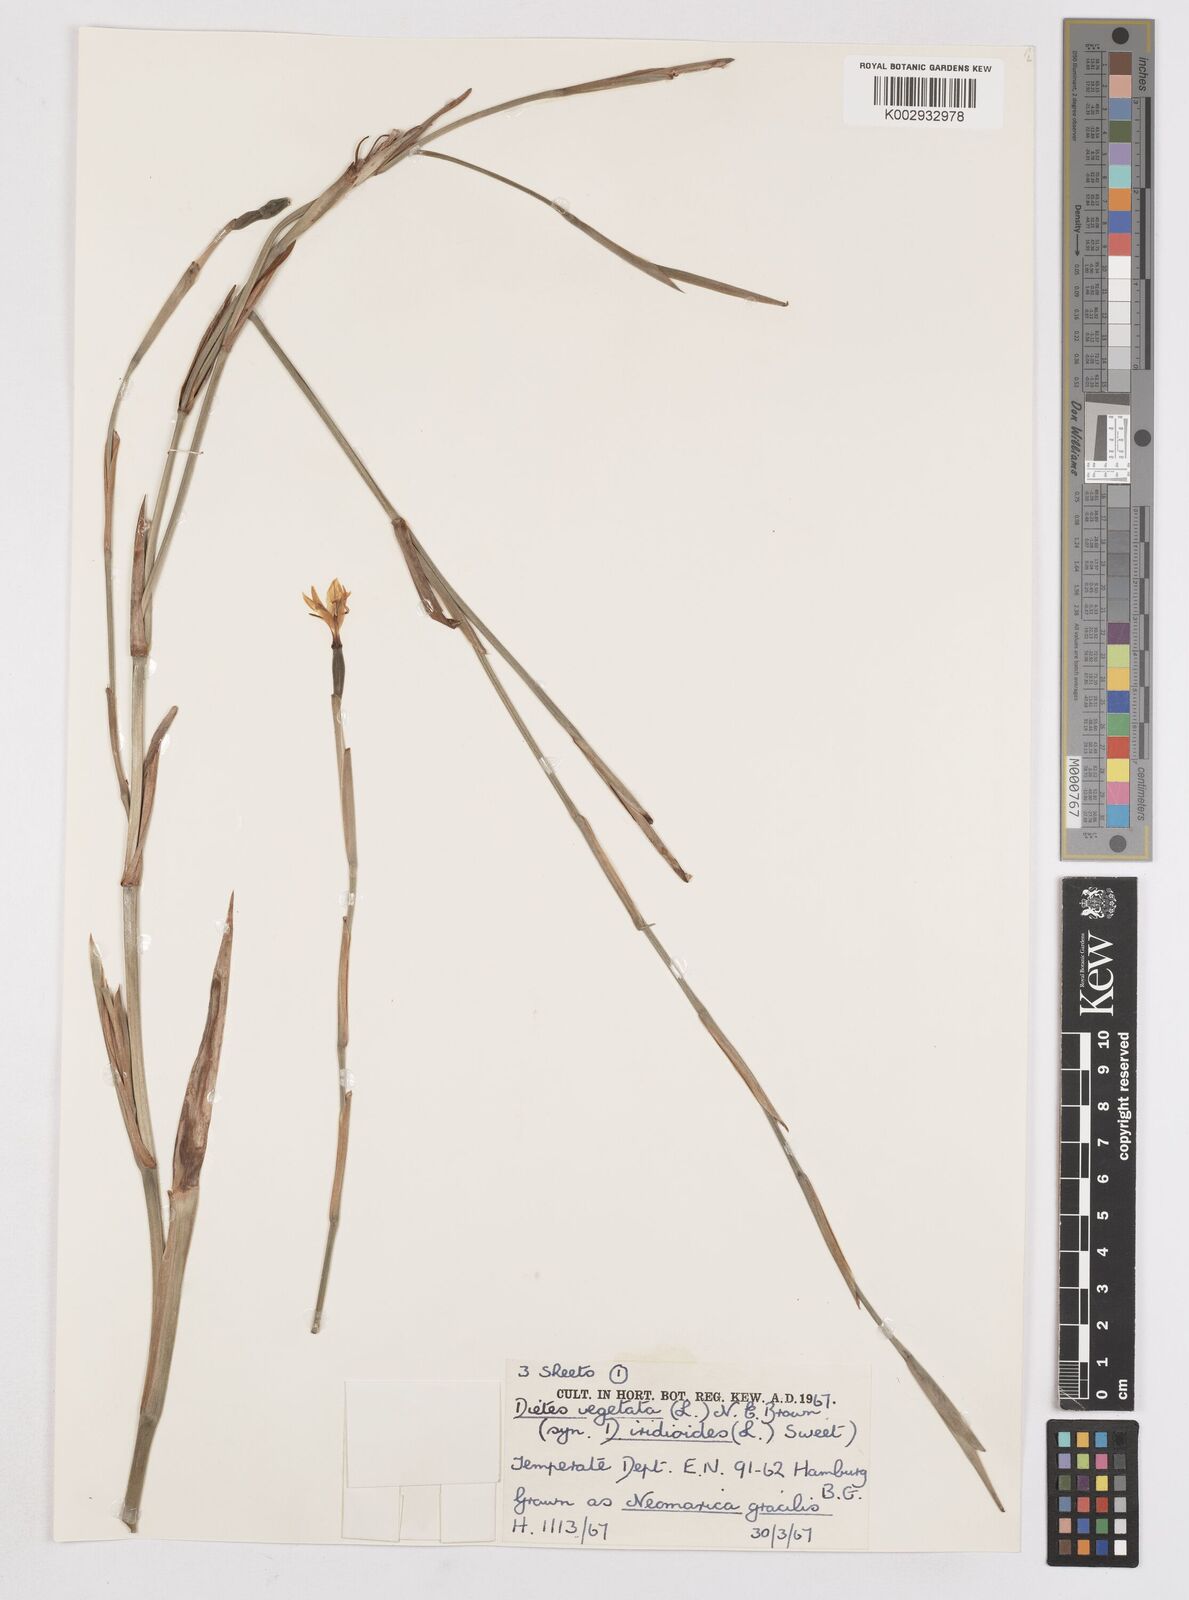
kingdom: Plantae
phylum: Tracheophyta
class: Liliopsida
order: Asparagales
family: Iridaceae
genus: Dietes
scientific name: Dietes iridioides
